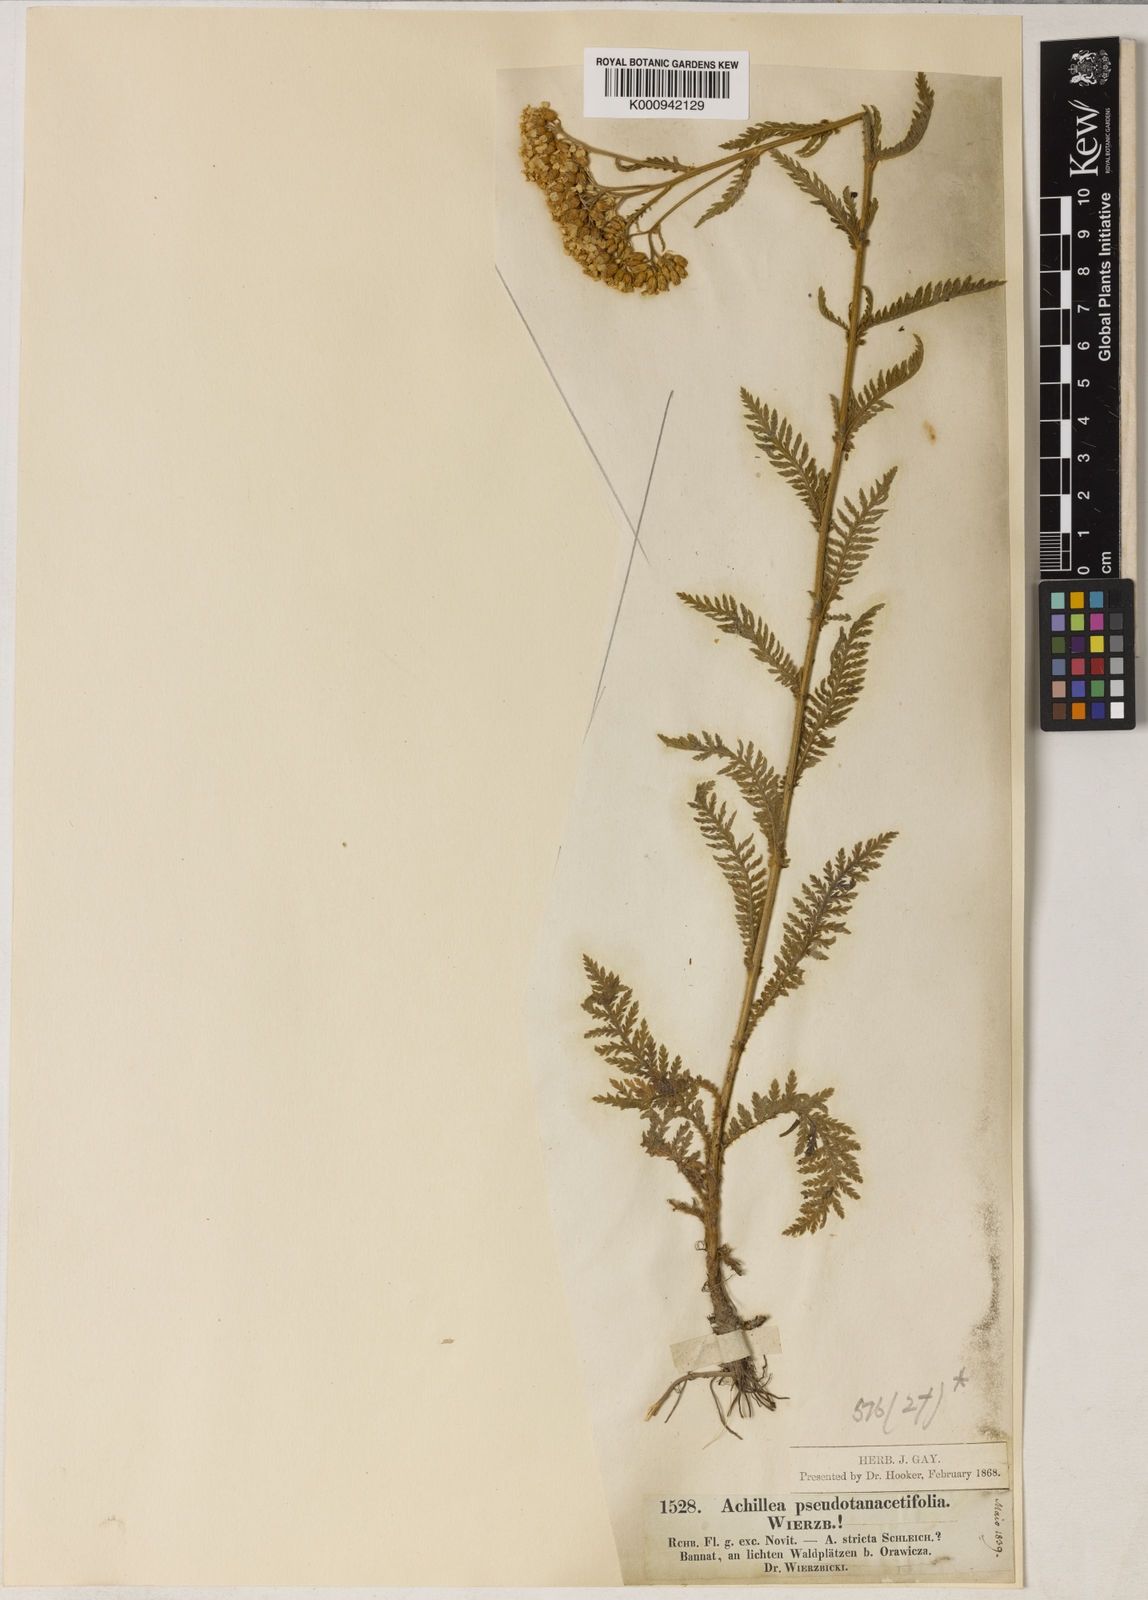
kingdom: Plantae
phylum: Tracheophyta
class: Magnoliopsida
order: Asterales
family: Asteraceae
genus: Achillea
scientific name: Achillea
